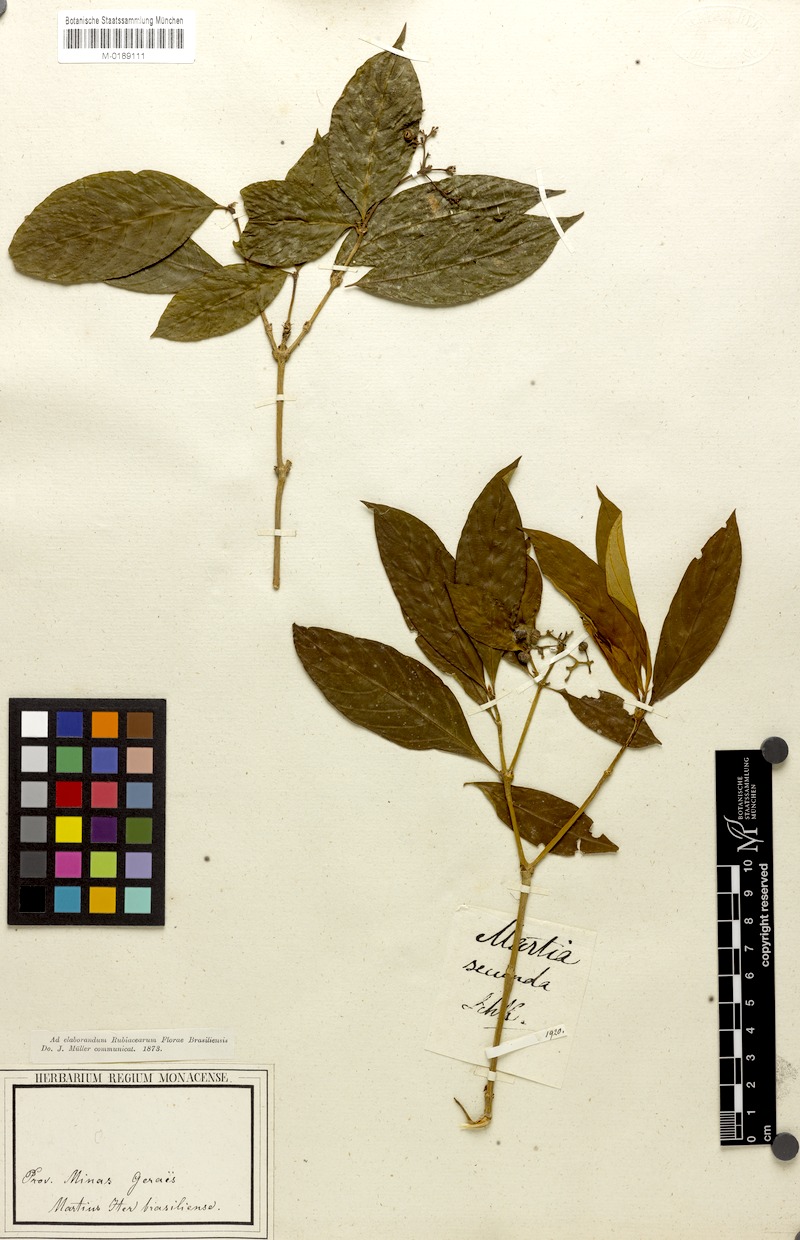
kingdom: Plantae
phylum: Tracheophyta
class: Magnoliopsida
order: Gentianales
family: Rubiaceae
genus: Psychotria
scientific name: Psychotria rhytidocarpa
